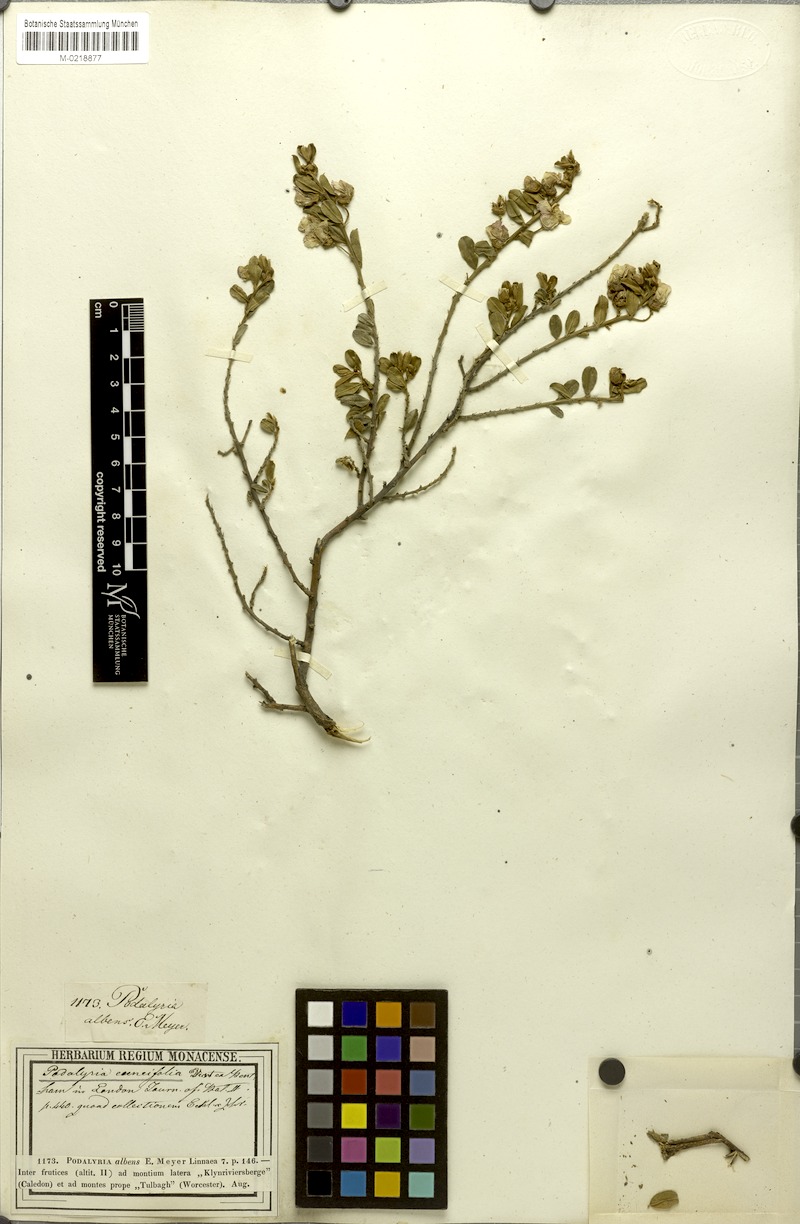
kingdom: Plantae
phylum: Tracheophyta
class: Magnoliopsida
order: Fabales
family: Fabaceae
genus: Podalyria
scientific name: Podalyria myrtillifolia
